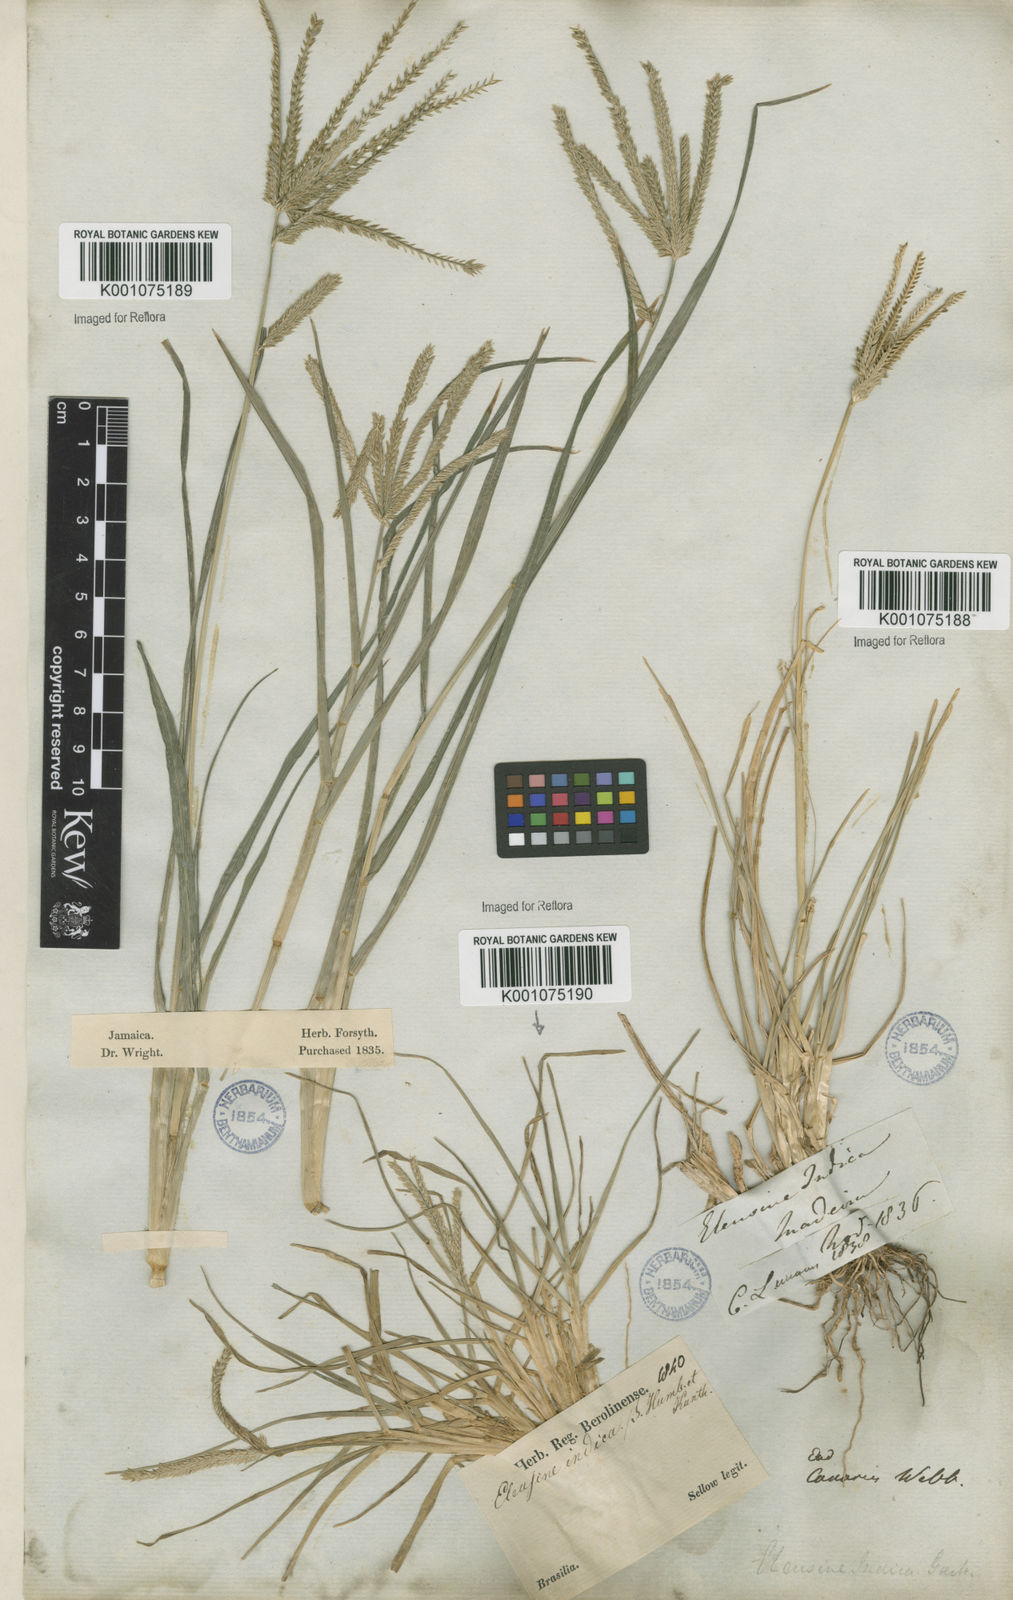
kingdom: Plantae
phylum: Tracheophyta
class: Liliopsida
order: Poales
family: Poaceae
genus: Eleusine
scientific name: Eleusine indica
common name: Yard-grass
